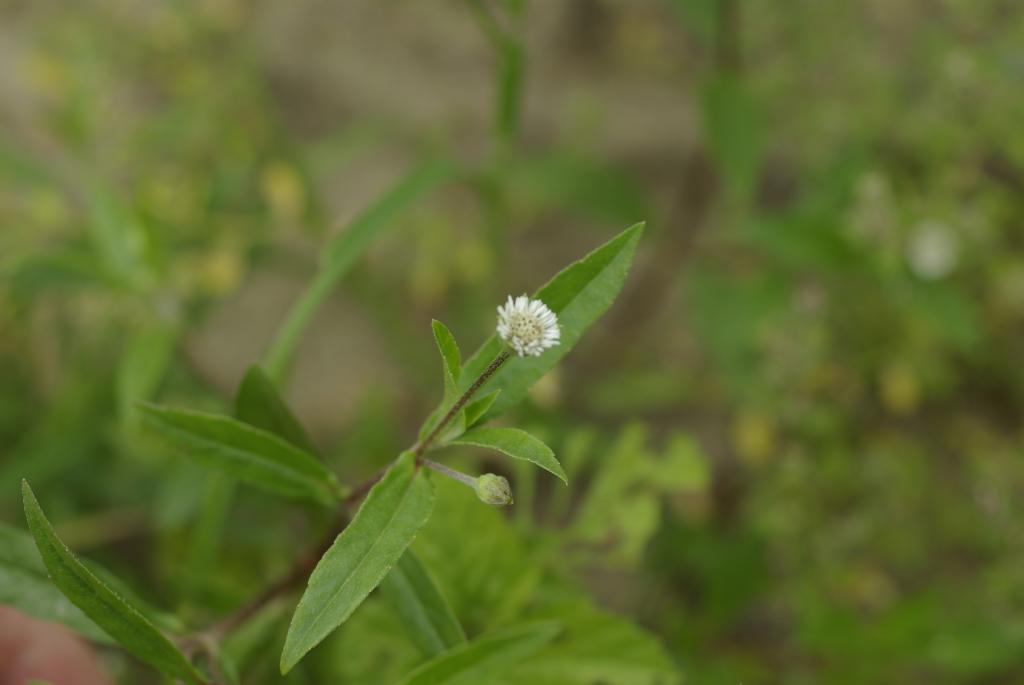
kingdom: Plantae
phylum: Tracheophyta
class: Magnoliopsida
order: Asterales
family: Asteraceae
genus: Eclipta
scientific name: Eclipta prostrata
